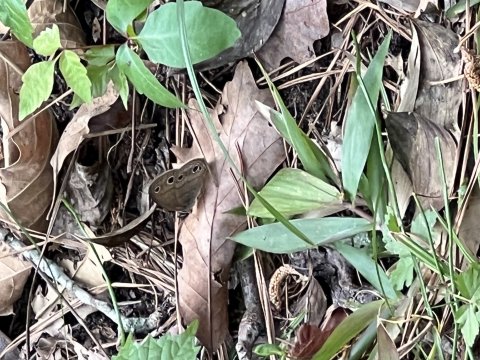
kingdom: Animalia
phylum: Arthropoda
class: Insecta
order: Lepidoptera
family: Nymphalidae
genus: Euptychia
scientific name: Euptychia cymela
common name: Little Wood Satyr
